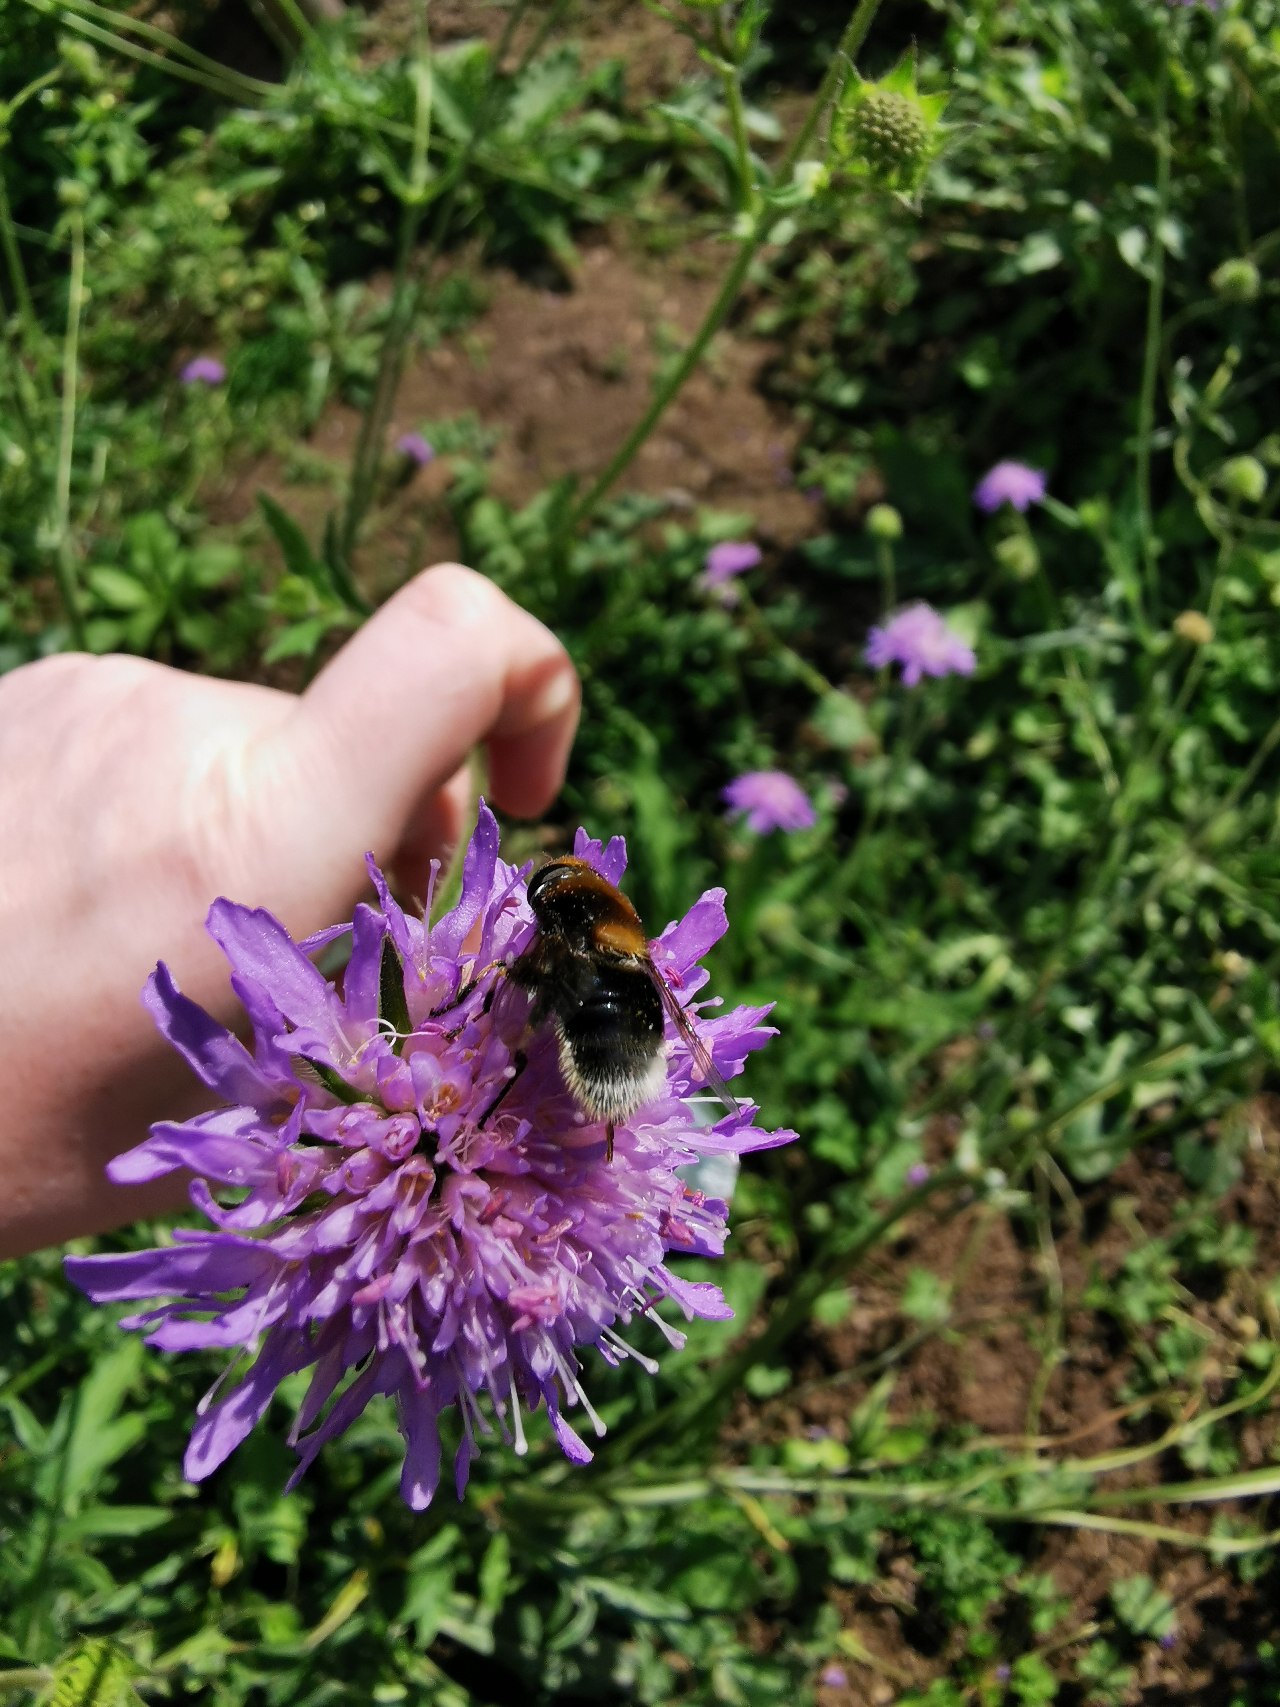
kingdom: Animalia
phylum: Arthropoda
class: Insecta
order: Diptera
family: Syrphidae
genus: Eristalis
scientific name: Eristalis intricaria
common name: Håret dyndflue
